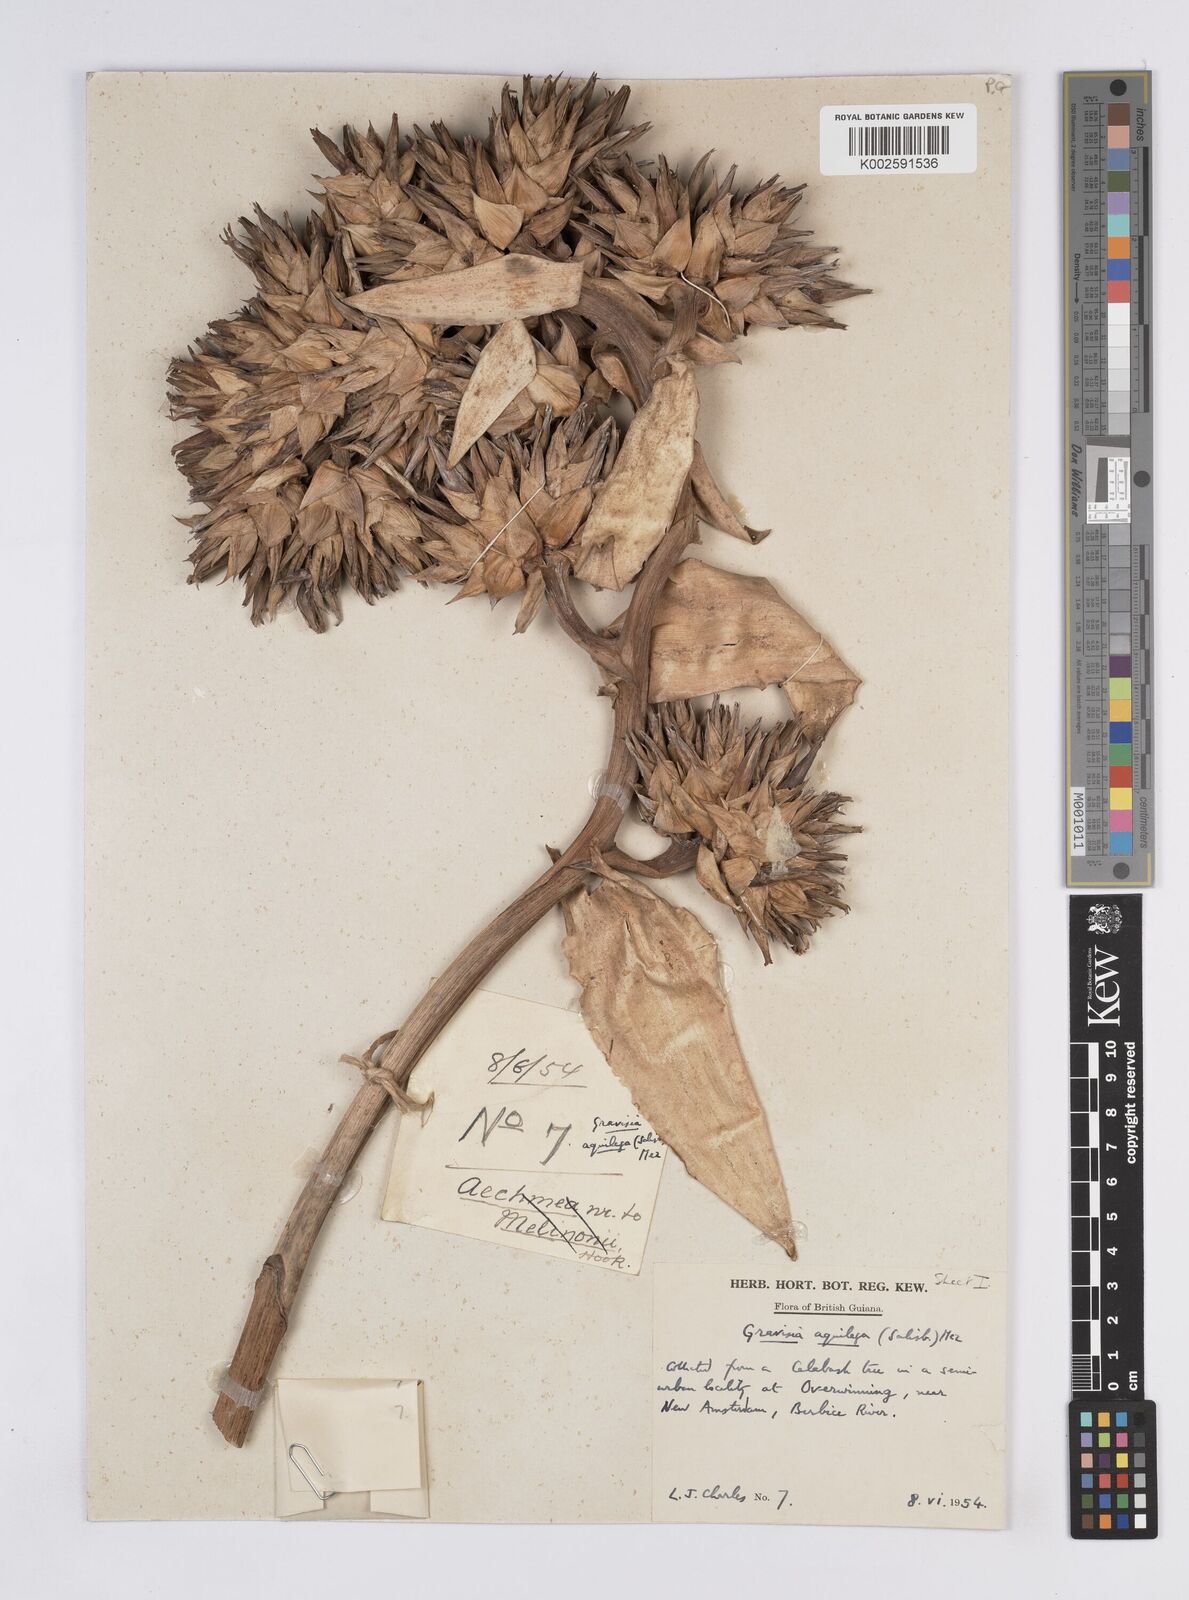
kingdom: Plantae
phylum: Tracheophyta
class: Liliopsida
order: Poales
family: Bromeliaceae
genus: Aechmea
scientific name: Aechmea
